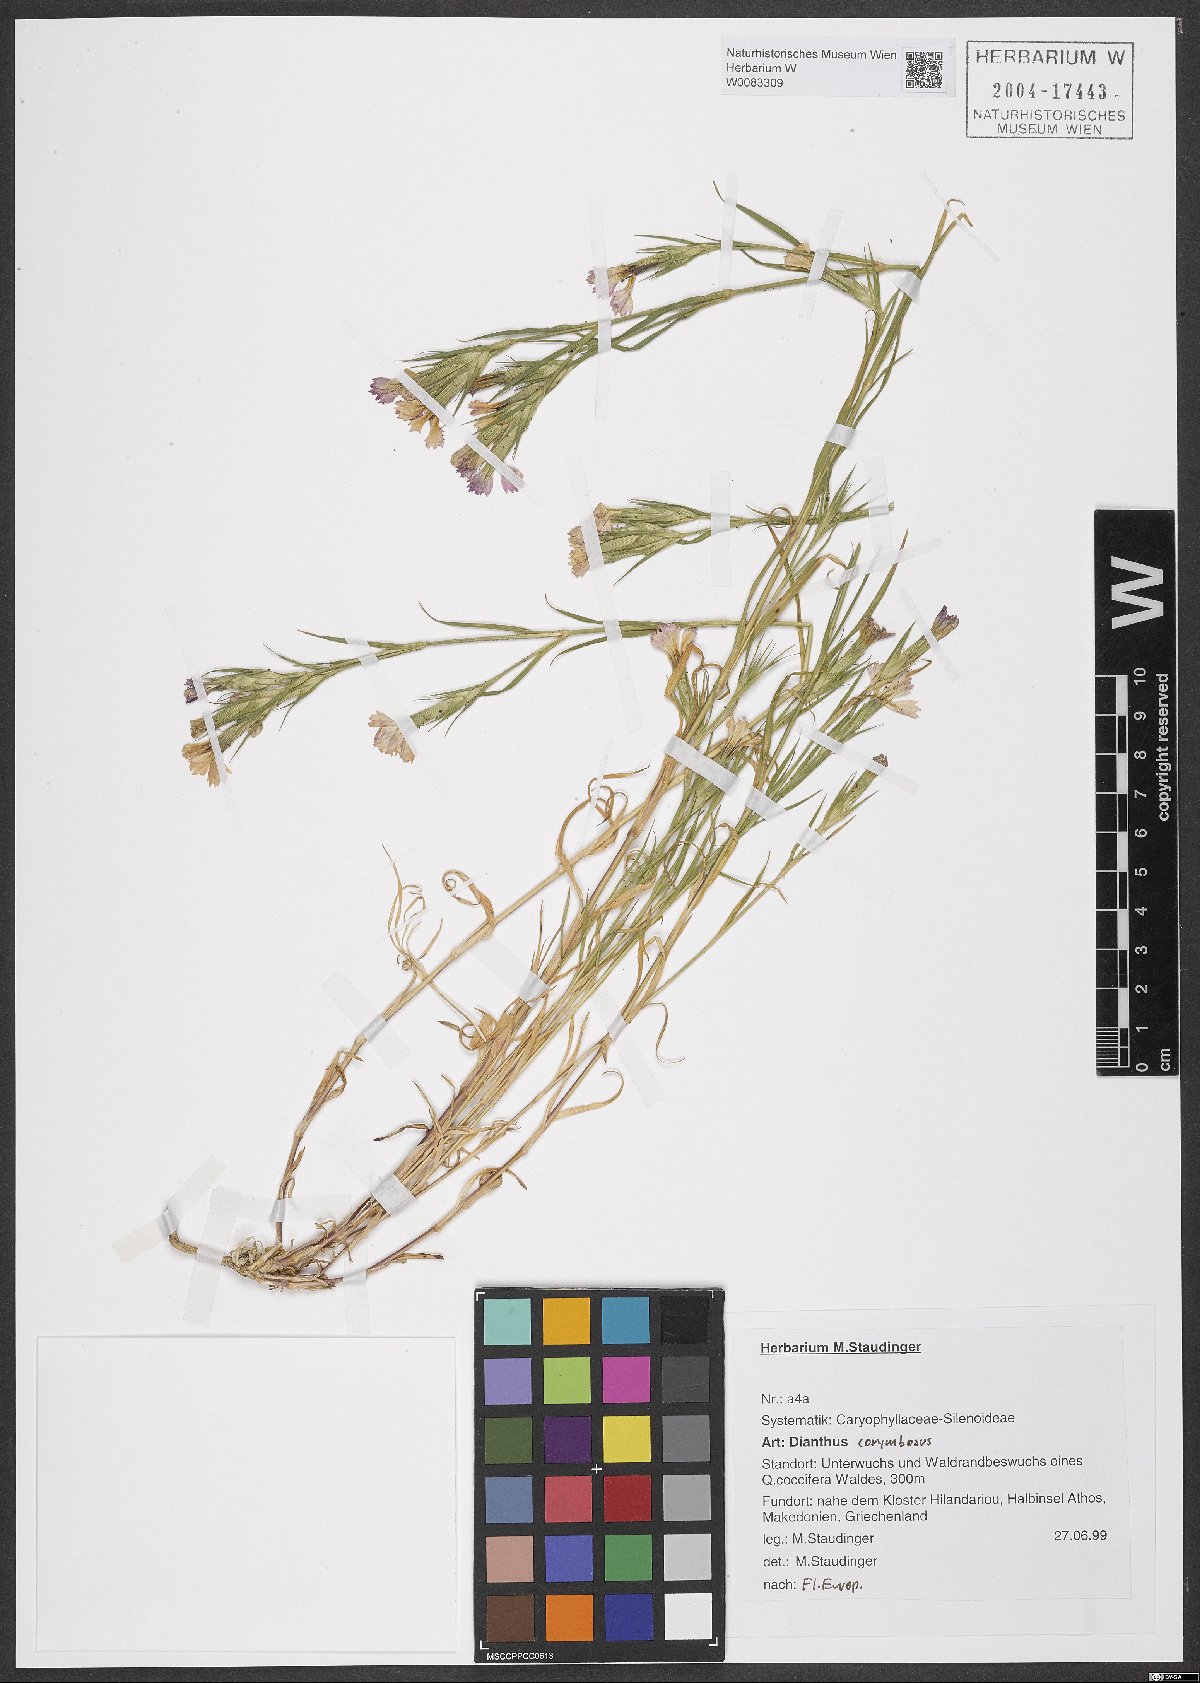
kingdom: Plantae
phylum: Tracheophyta
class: Magnoliopsida
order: Caryophyllales
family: Caryophyllaceae
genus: Dianthus
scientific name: Dianthus corymbosus
